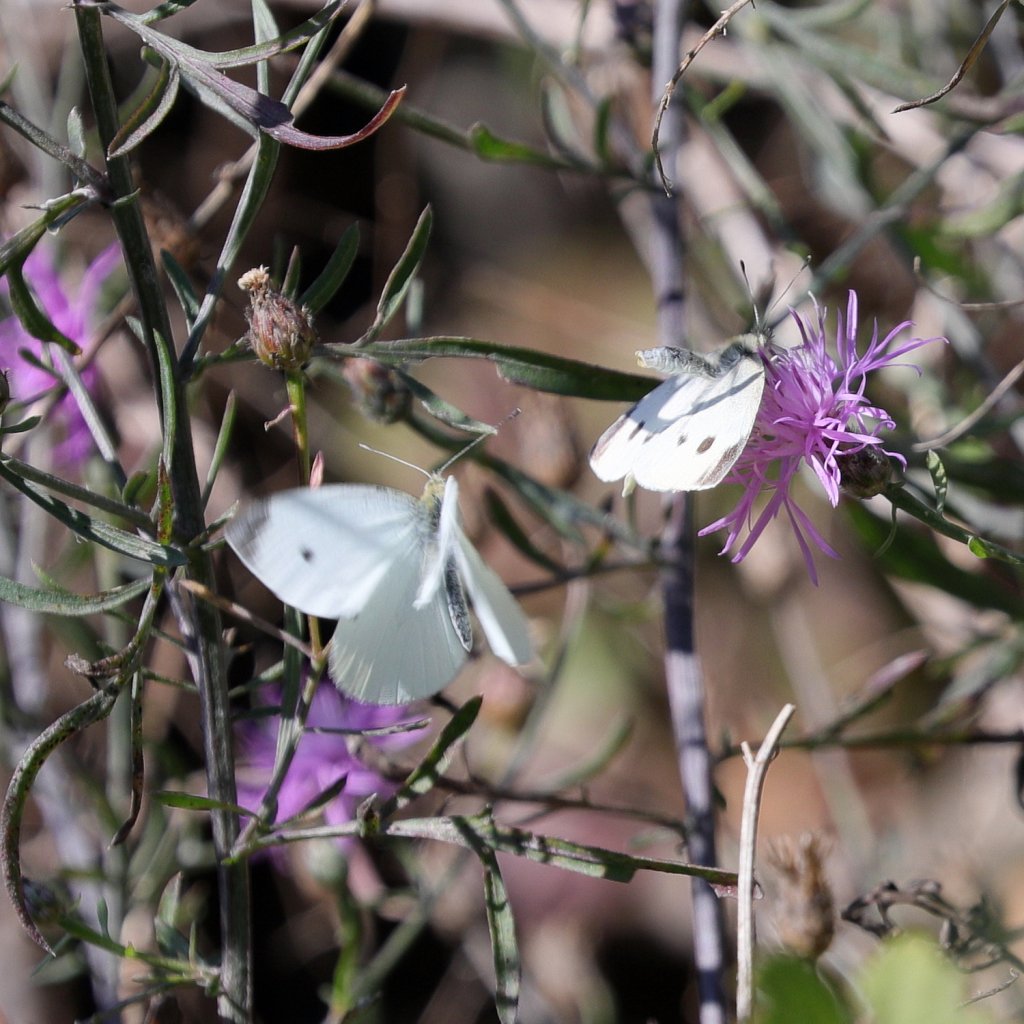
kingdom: Animalia
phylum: Arthropoda
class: Insecta
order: Lepidoptera
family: Pieridae
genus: Pieris
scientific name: Pieris rapae
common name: Cabbage White
